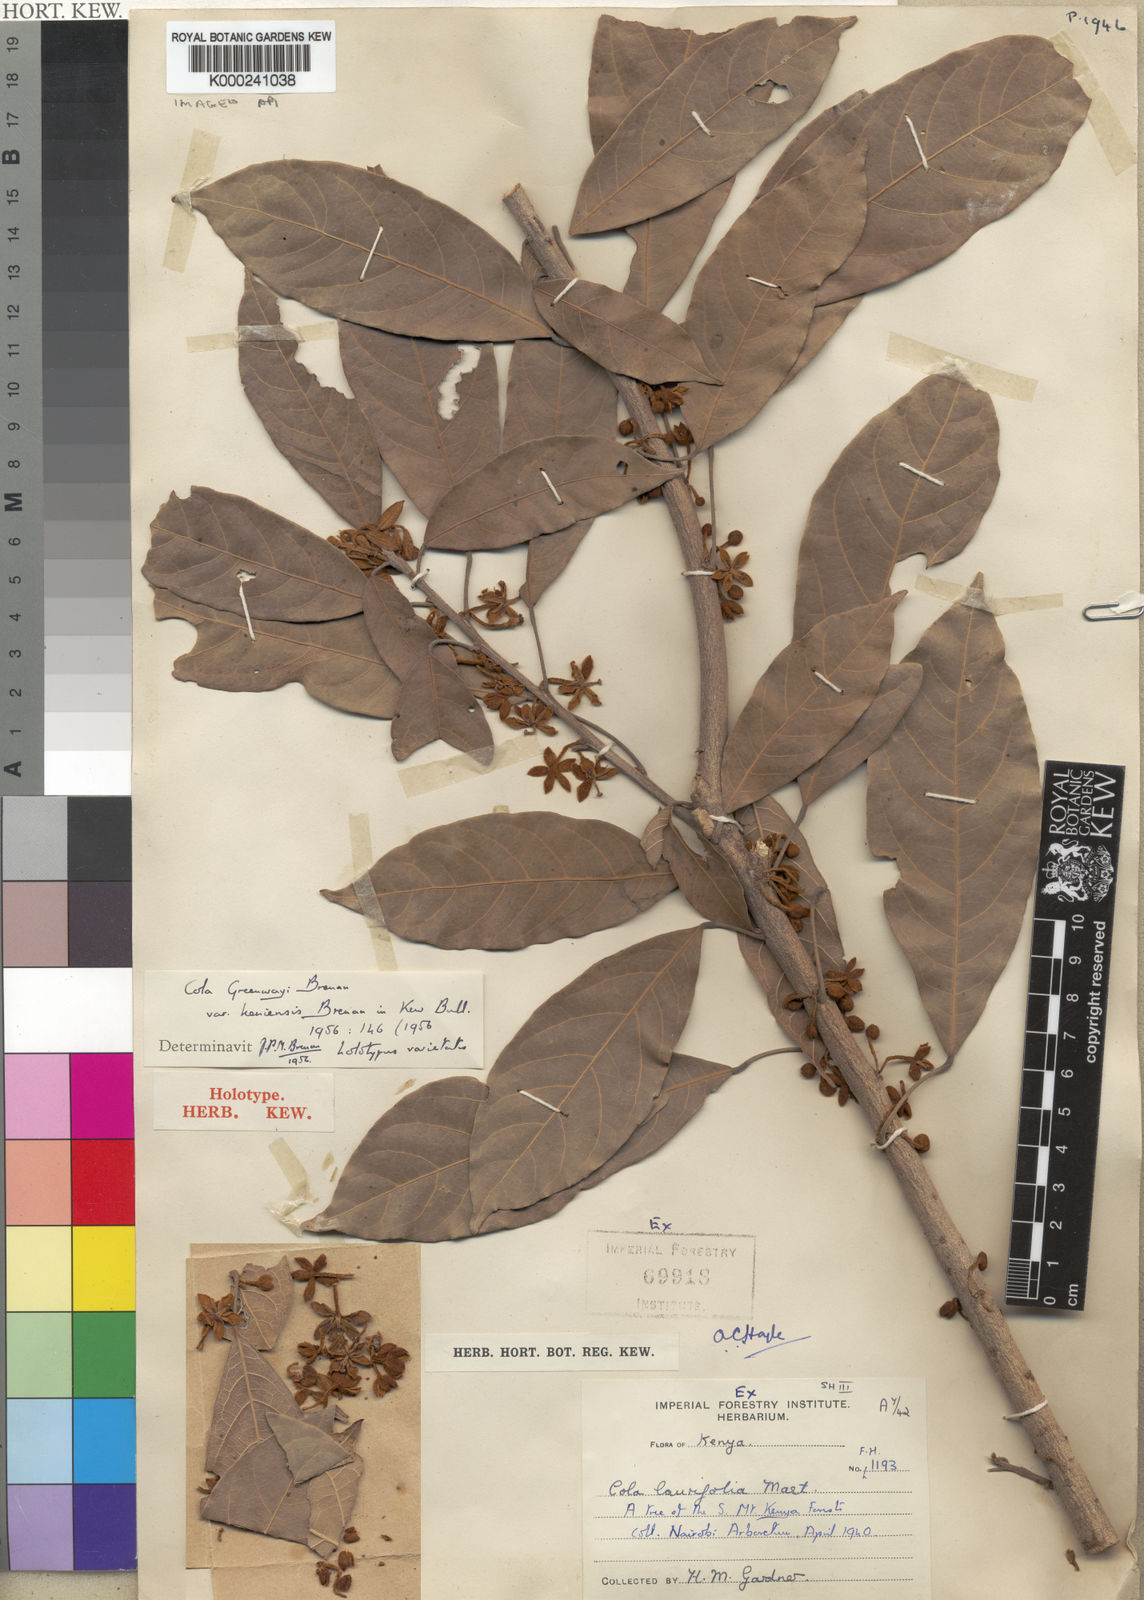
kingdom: Plantae
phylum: Tracheophyta
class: Magnoliopsida
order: Malvales
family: Malvaceae
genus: Cola
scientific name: Cola greenwayi
